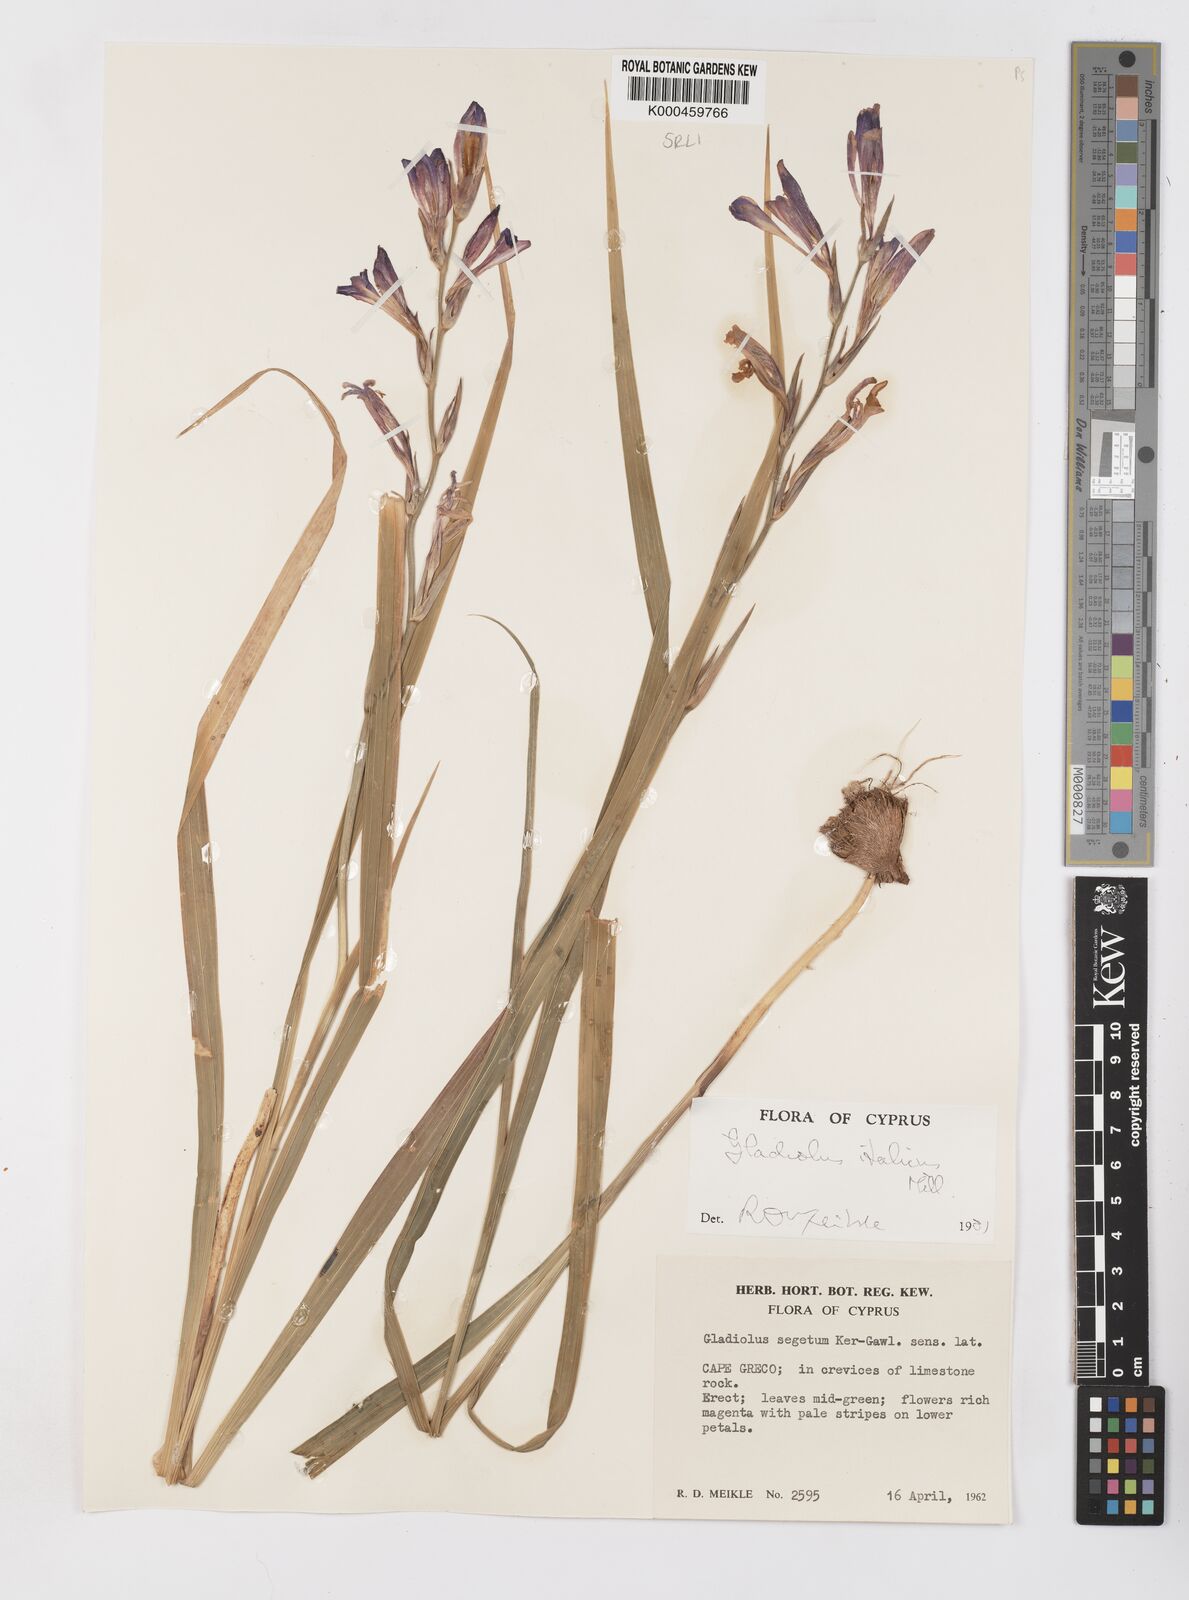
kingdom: Plantae
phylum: Tracheophyta
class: Liliopsida
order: Asparagales
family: Iridaceae
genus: Gladiolus
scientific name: Gladiolus italicus
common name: Field gladiolus
